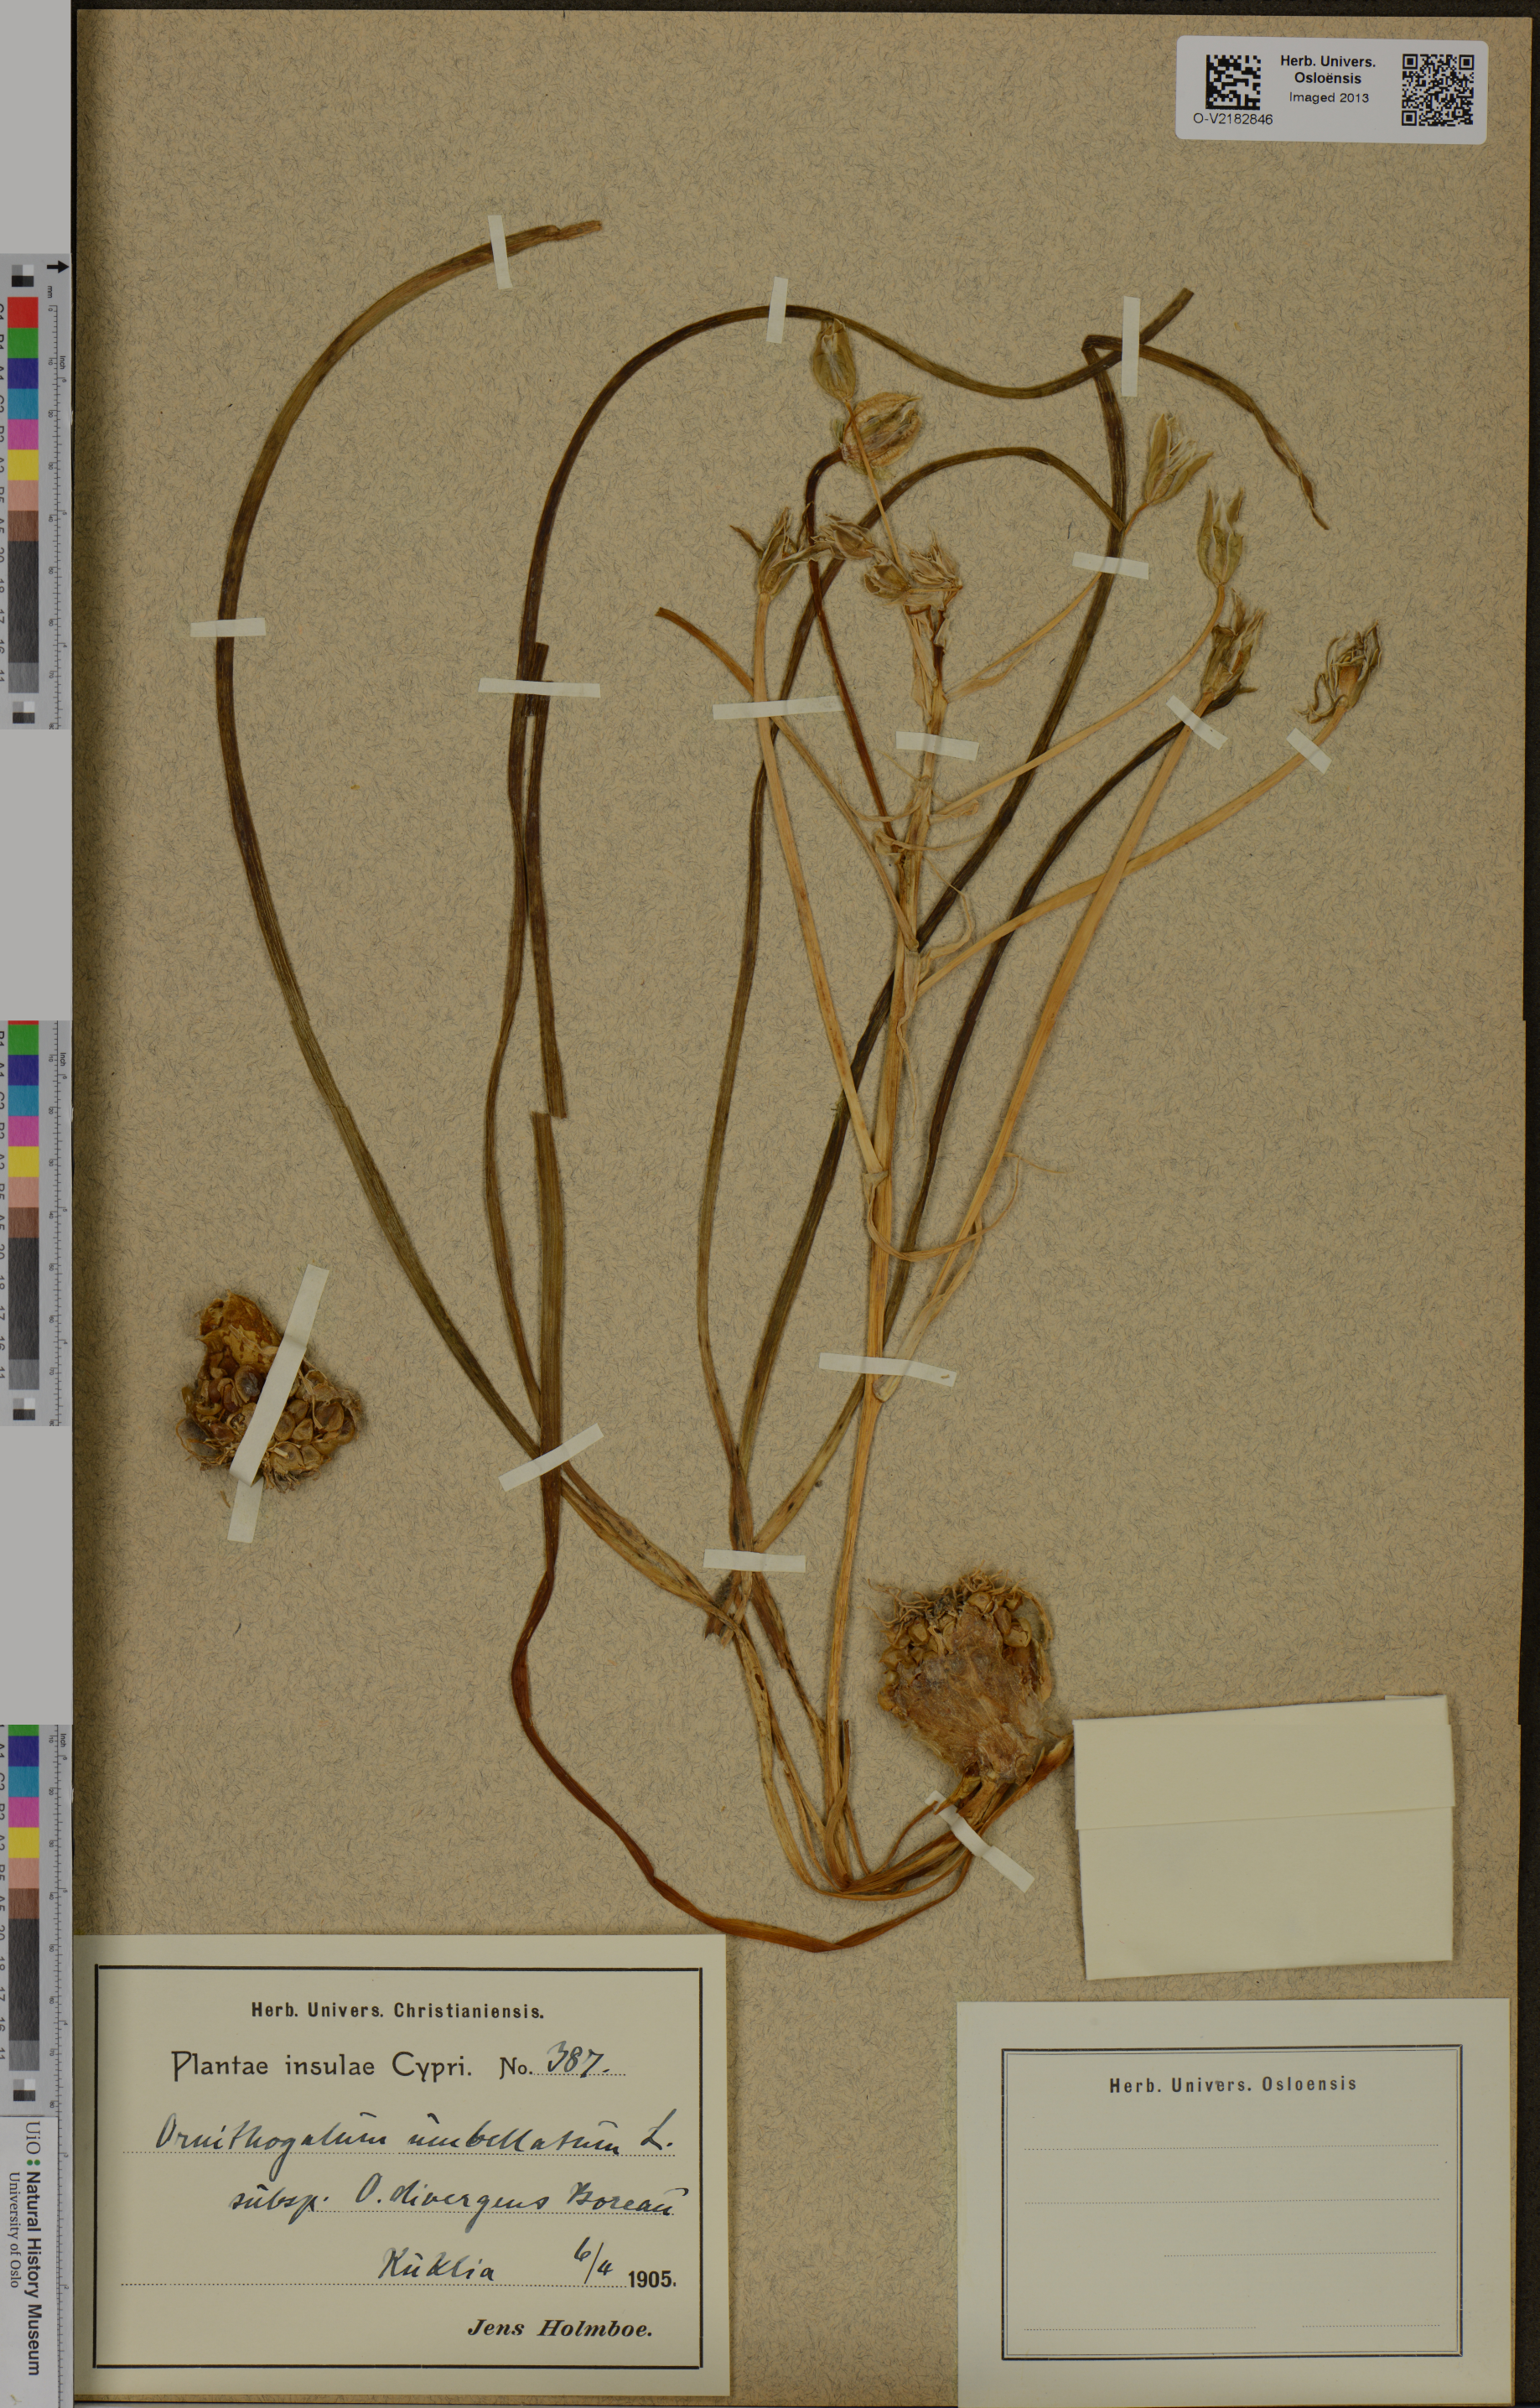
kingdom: Plantae
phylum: Tracheophyta
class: Liliopsida
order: Asparagales
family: Asparagaceae
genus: Ornithogalum
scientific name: Ornithogalum umbellatum
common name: Garden star-of-bethlehem
